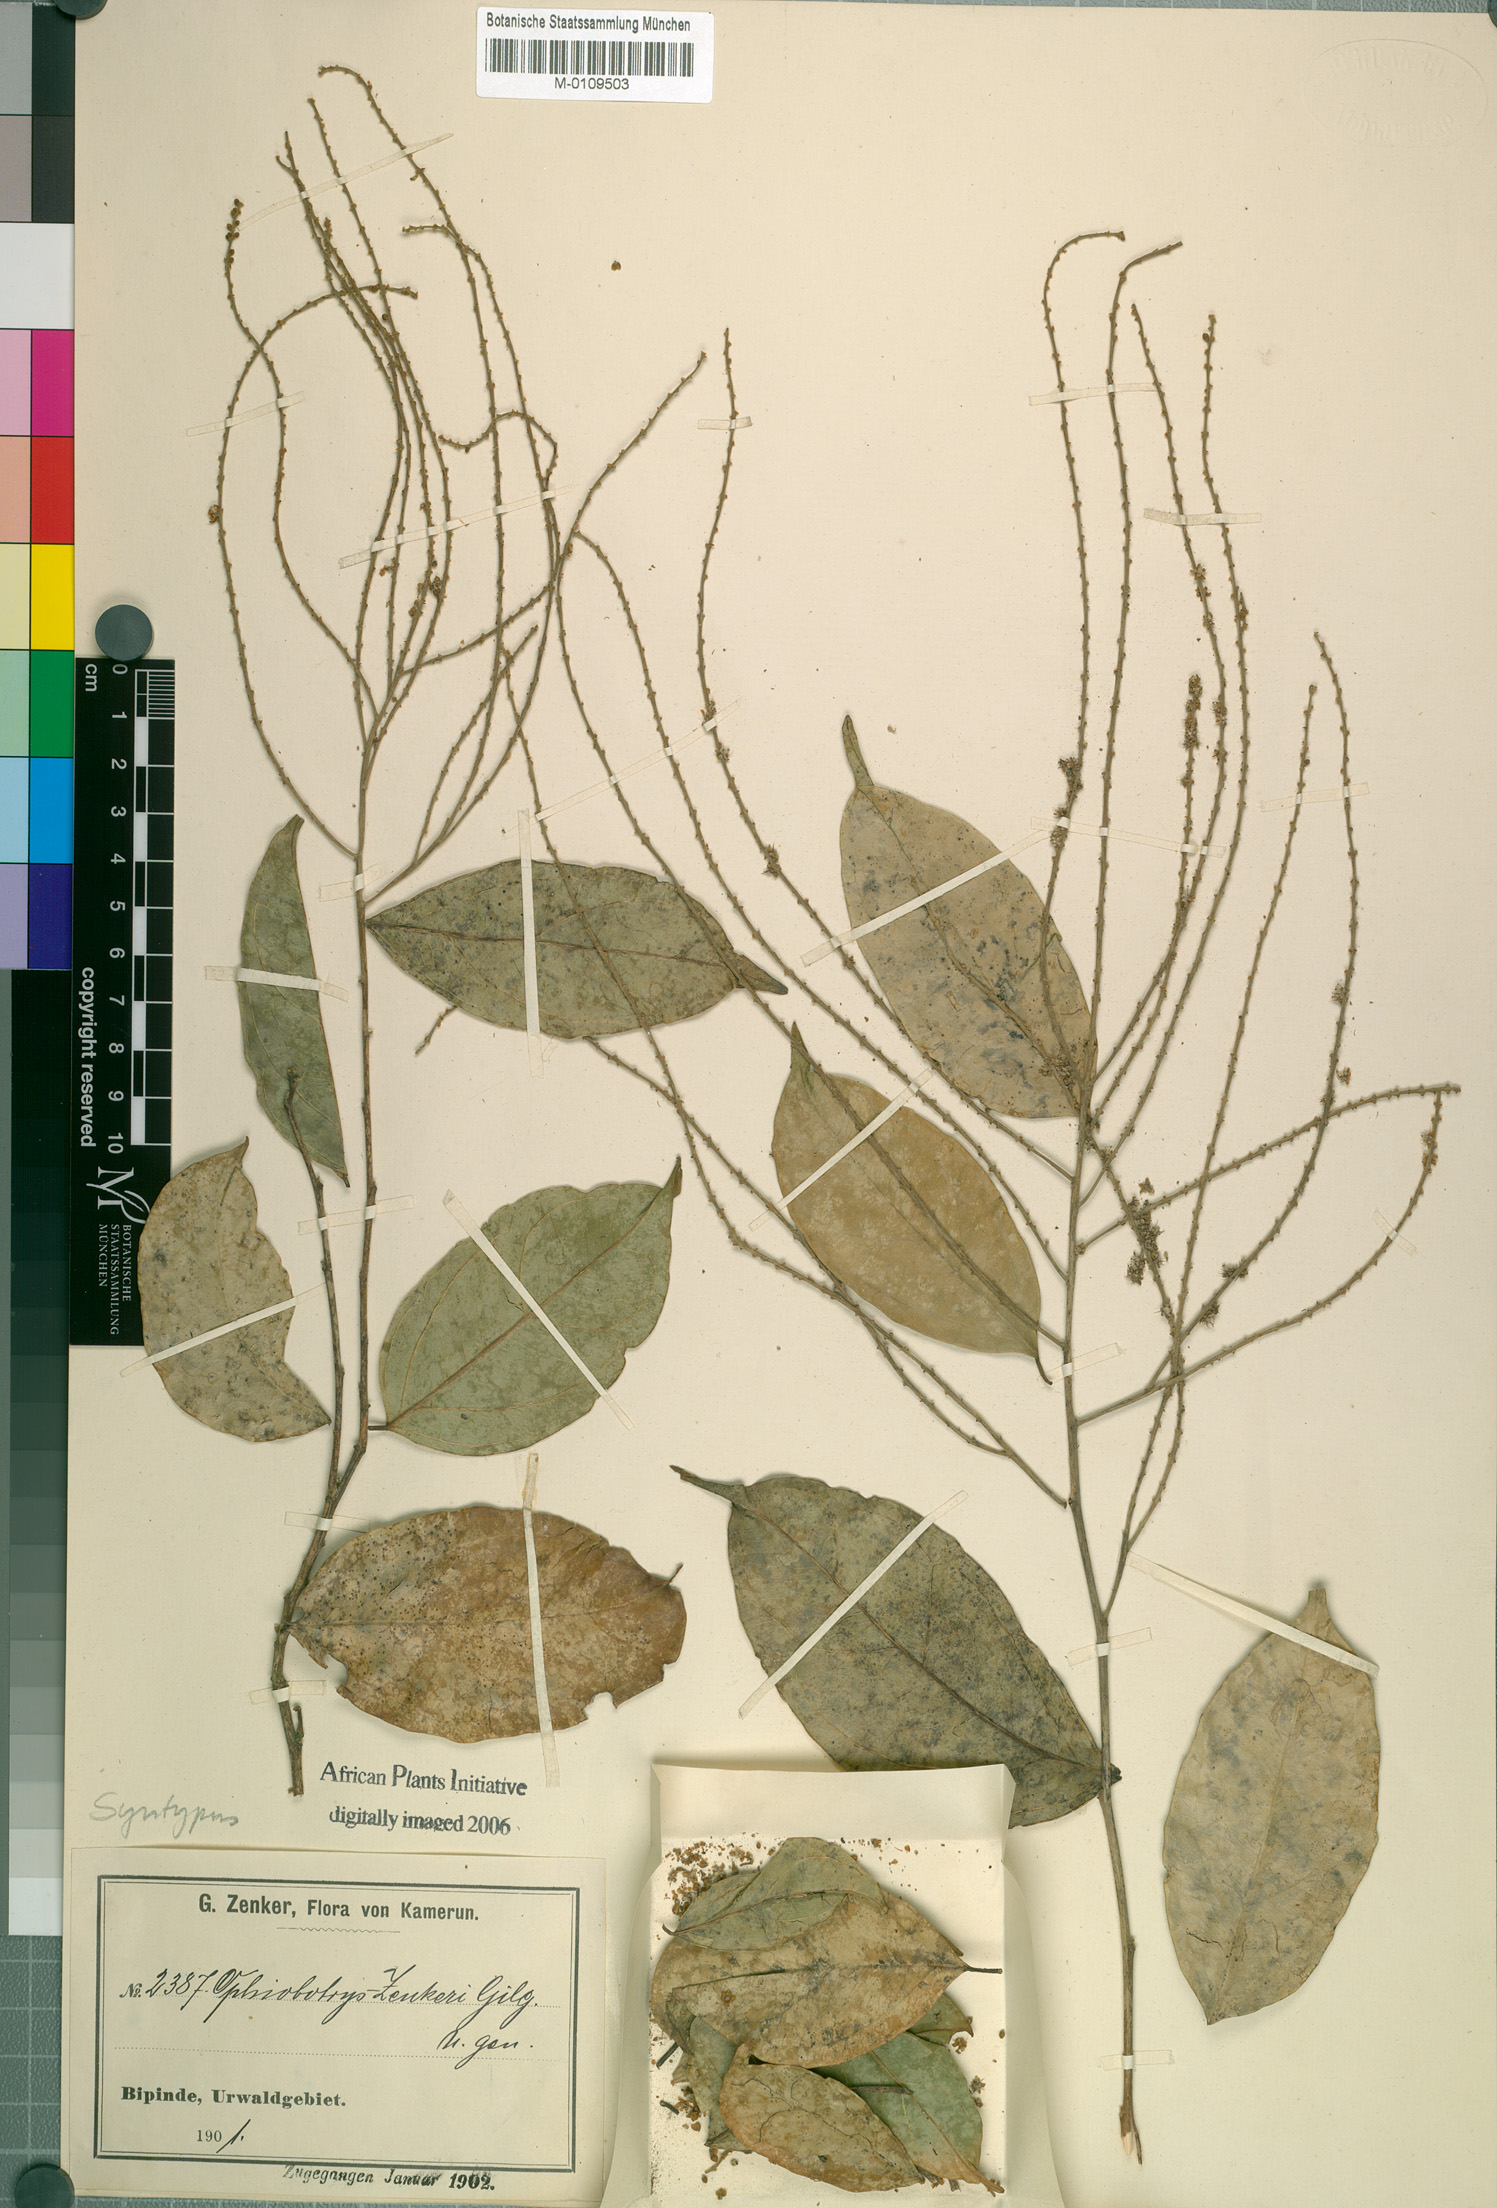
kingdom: Plantae
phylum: Tracheophyta
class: Magnoliopsida
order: Malpighiales
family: Salicaceae
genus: Ophiobotrys
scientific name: Ophiobotrys zenkeri
